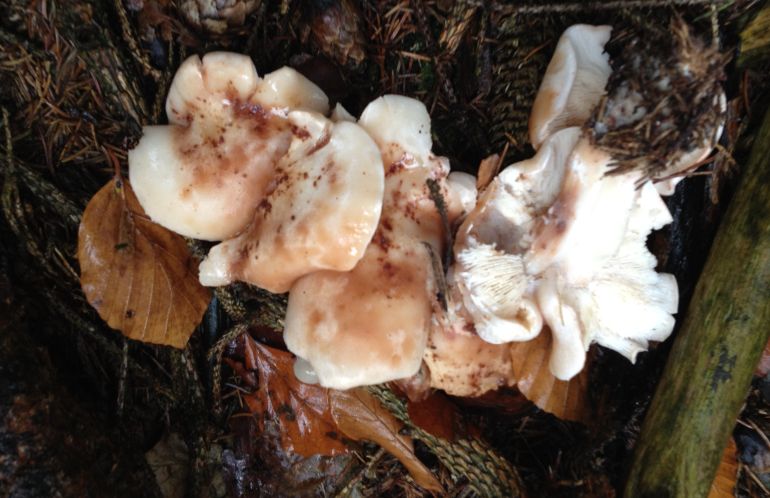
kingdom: Fungi
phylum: Basidiomycota
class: Agaricomycetes
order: Agaricales
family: Omphalotaceae
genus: Rhodocollybia
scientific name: Rhodocollybia maculata
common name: plettet fladhat
